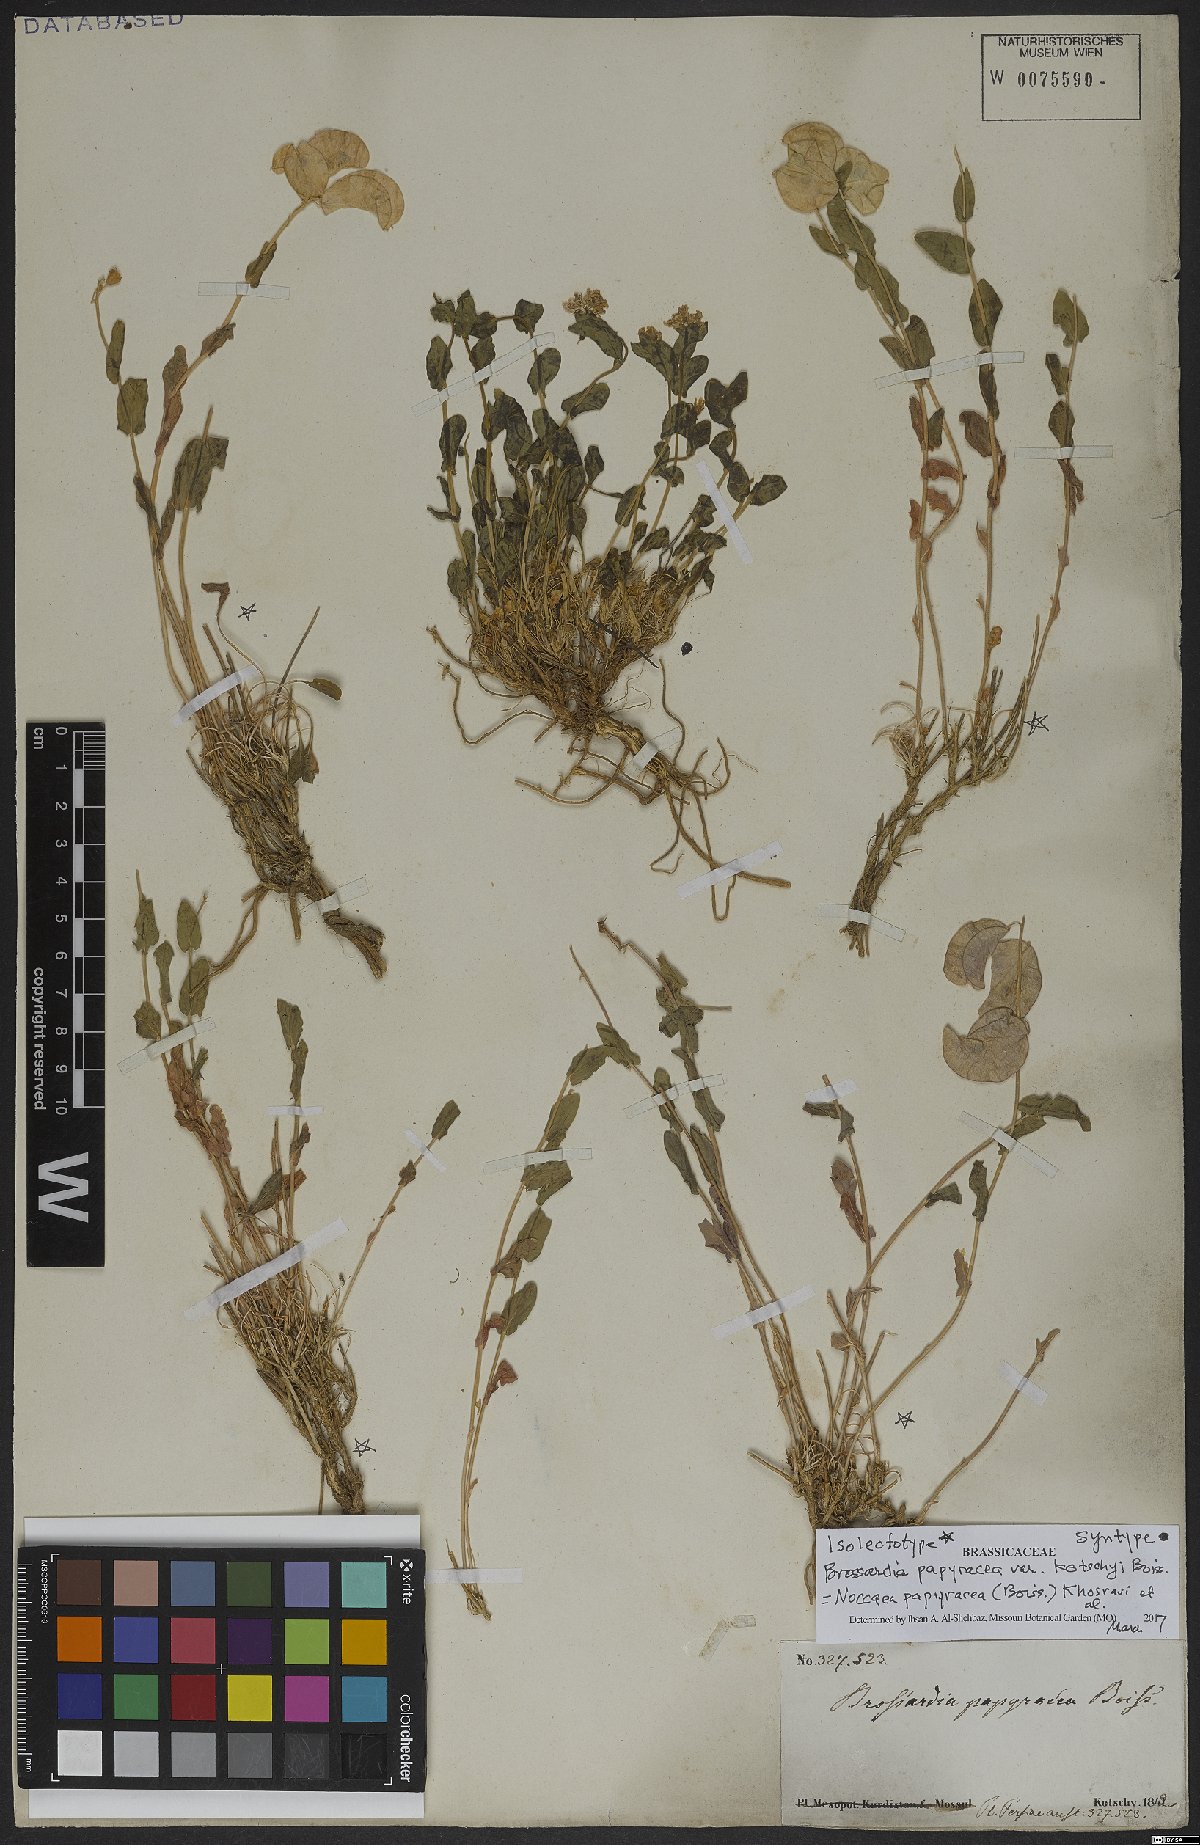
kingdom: Plantae
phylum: Tracheophyta
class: Magnoliopsida
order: Brassicales
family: Brassicaceae
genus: Noccaea
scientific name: Noccaea papyracea
